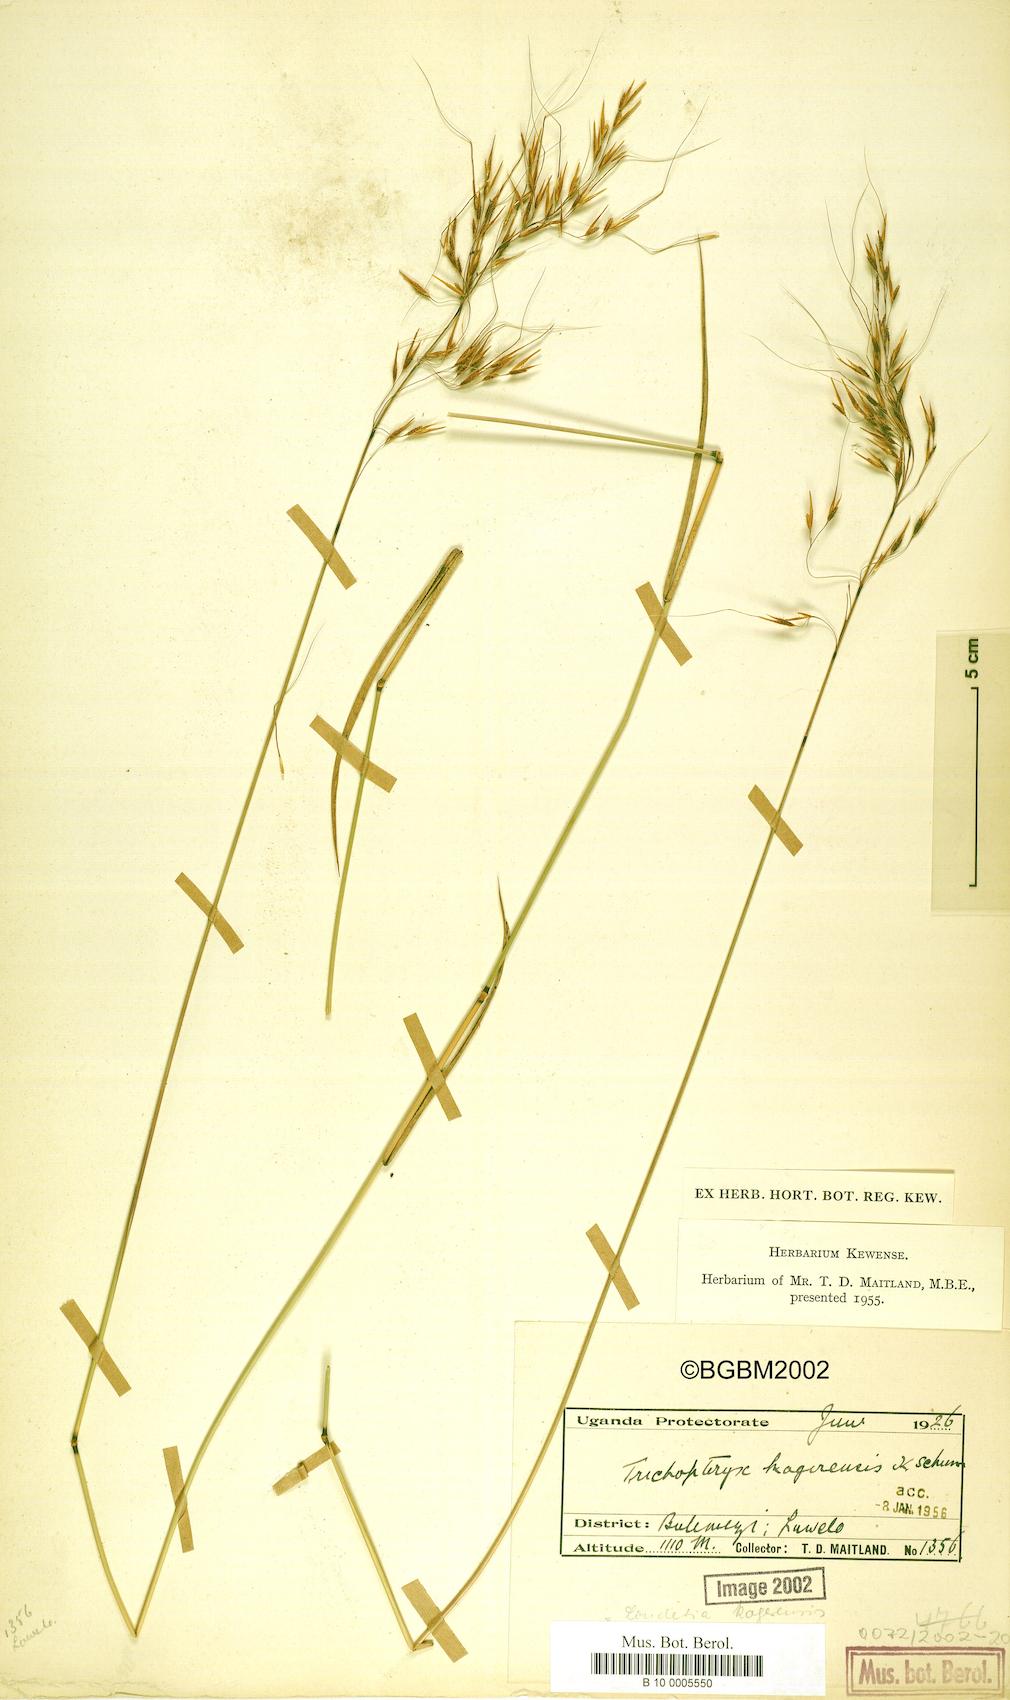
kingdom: Plantae
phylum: Tracheophyta
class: Liliopsida
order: Poales
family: Poaceae
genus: Loudetia
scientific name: Loudetia kagerensis
